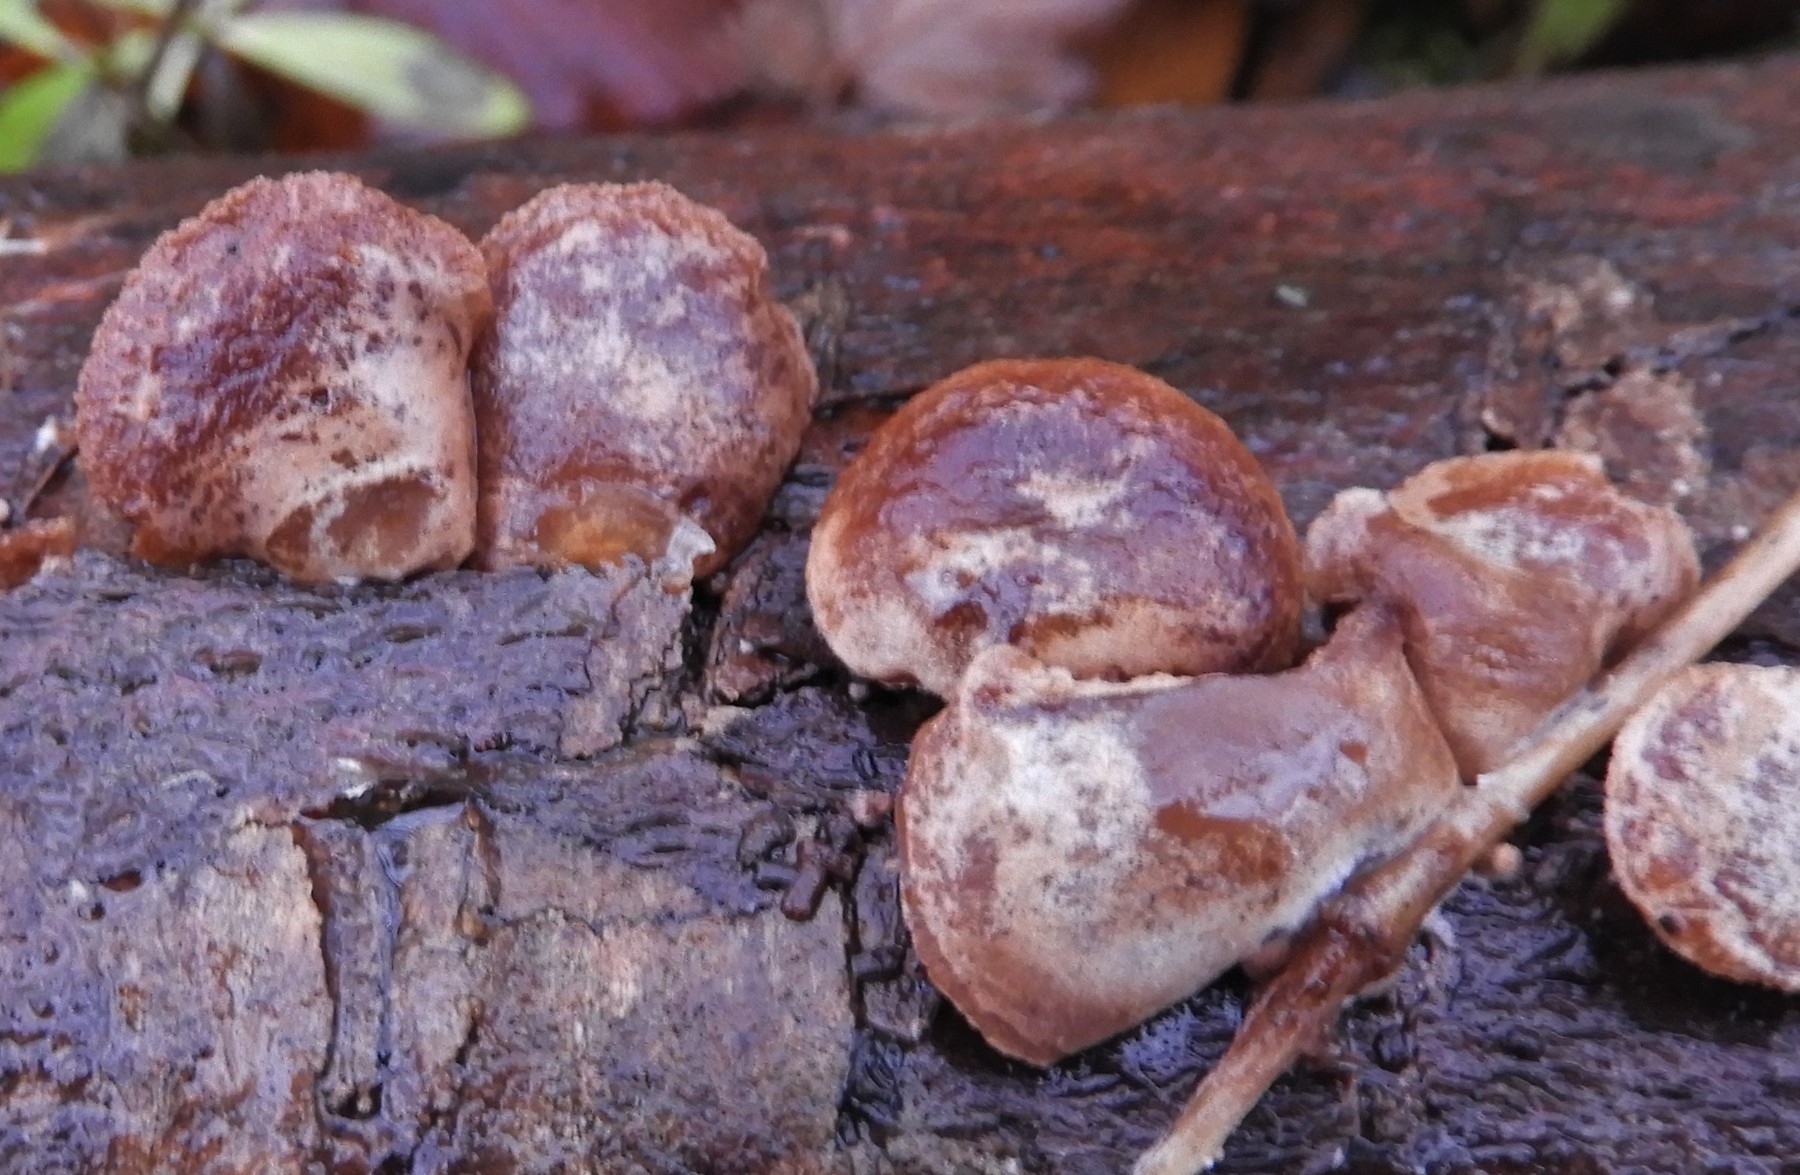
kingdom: Fungi
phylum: Basidiomycota
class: Agaricomycetes
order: Agaricales
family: Strophariaceae
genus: Deconica
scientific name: Deconica horizontalis
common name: ved-stråhat
